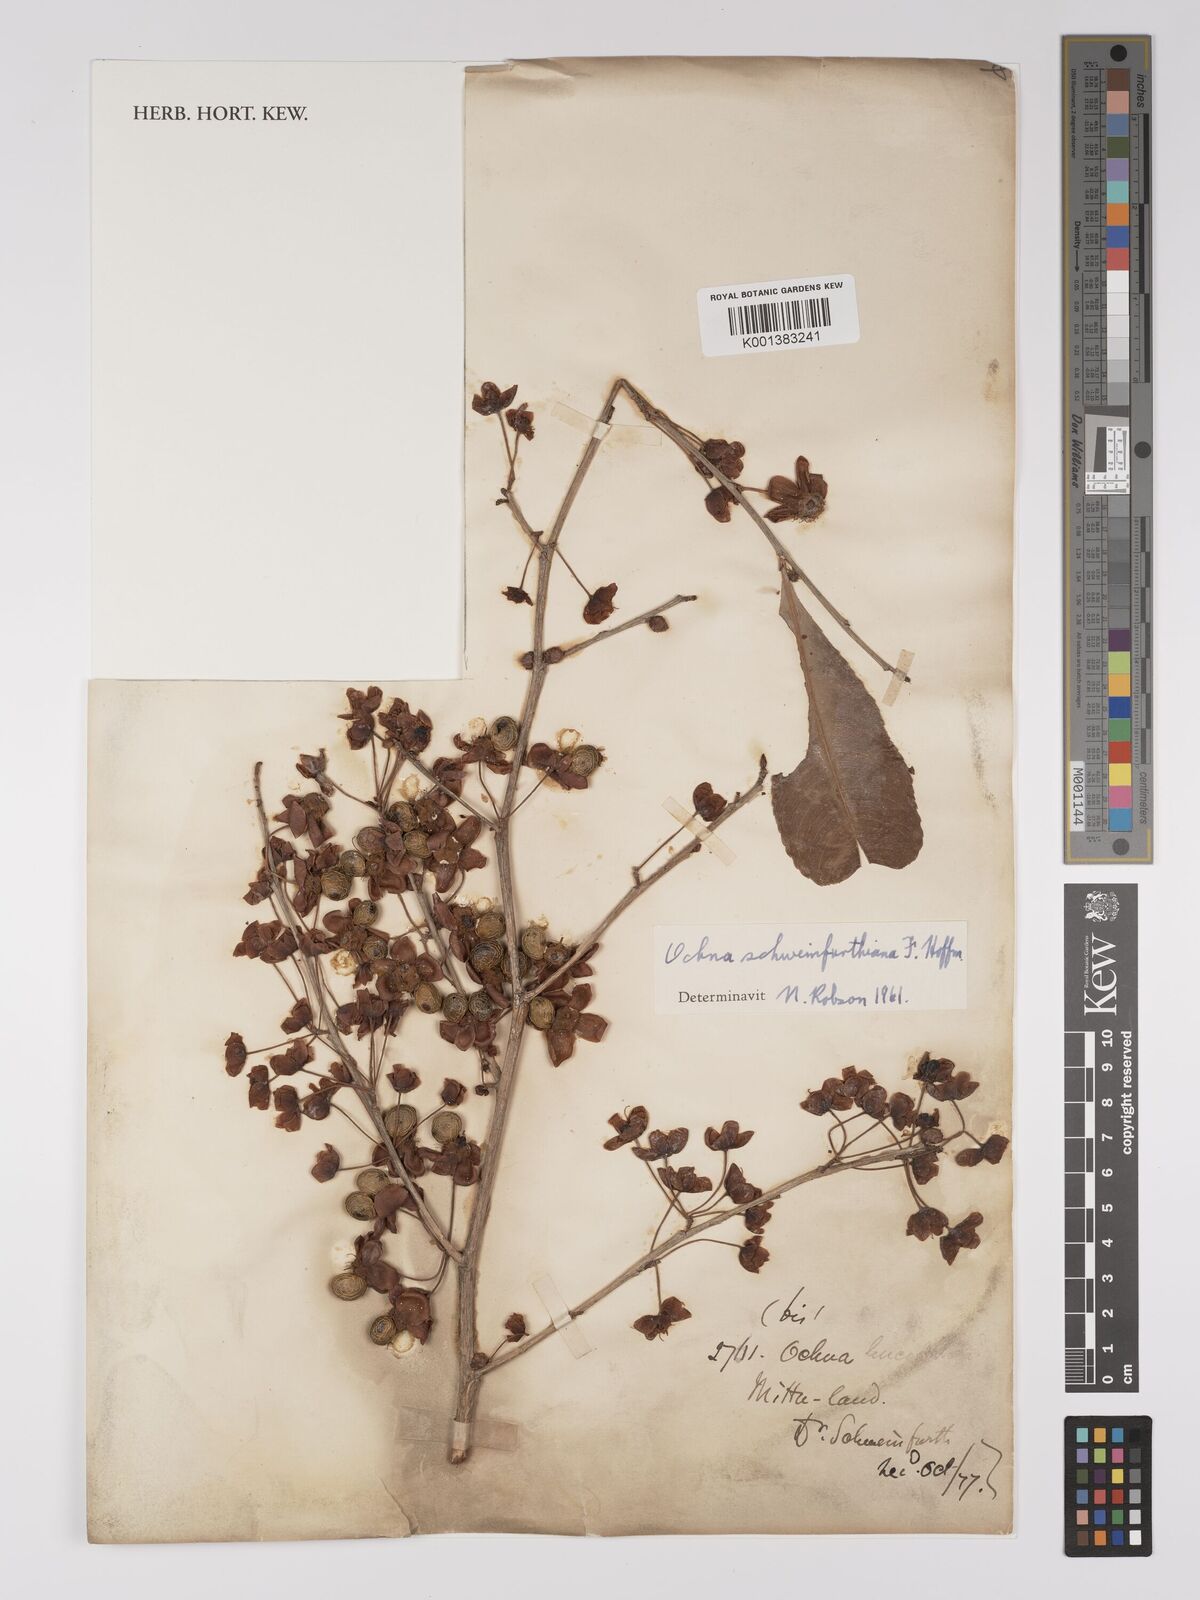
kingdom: Plantae
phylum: Tracheophyta
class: Magnoliopsida
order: Malpighiales
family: Ochnaceae
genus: Ochna
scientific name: Ochna schweinfurthiana
